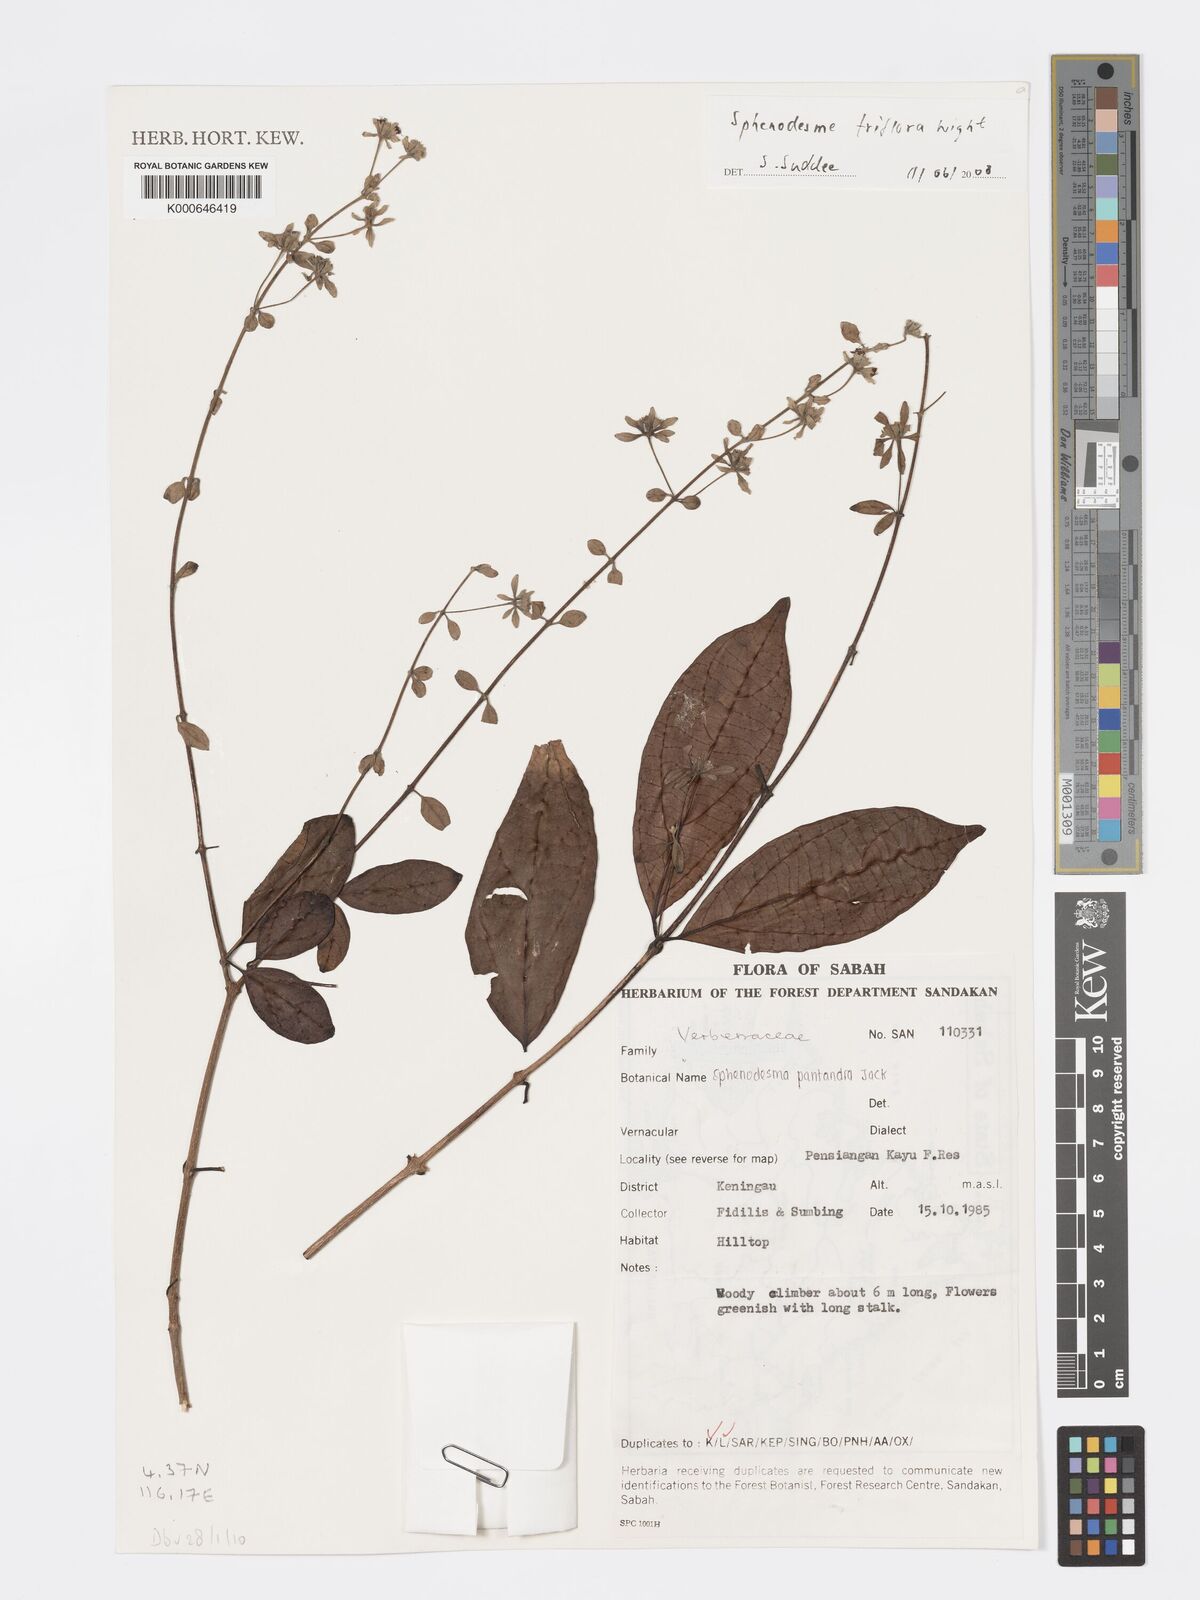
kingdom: Plantae
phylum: Tracheophyta
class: Magnoliopsida
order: Lamiales
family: Lamiaceae
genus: Sphenodesme
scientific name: Sphenodesme triflora
